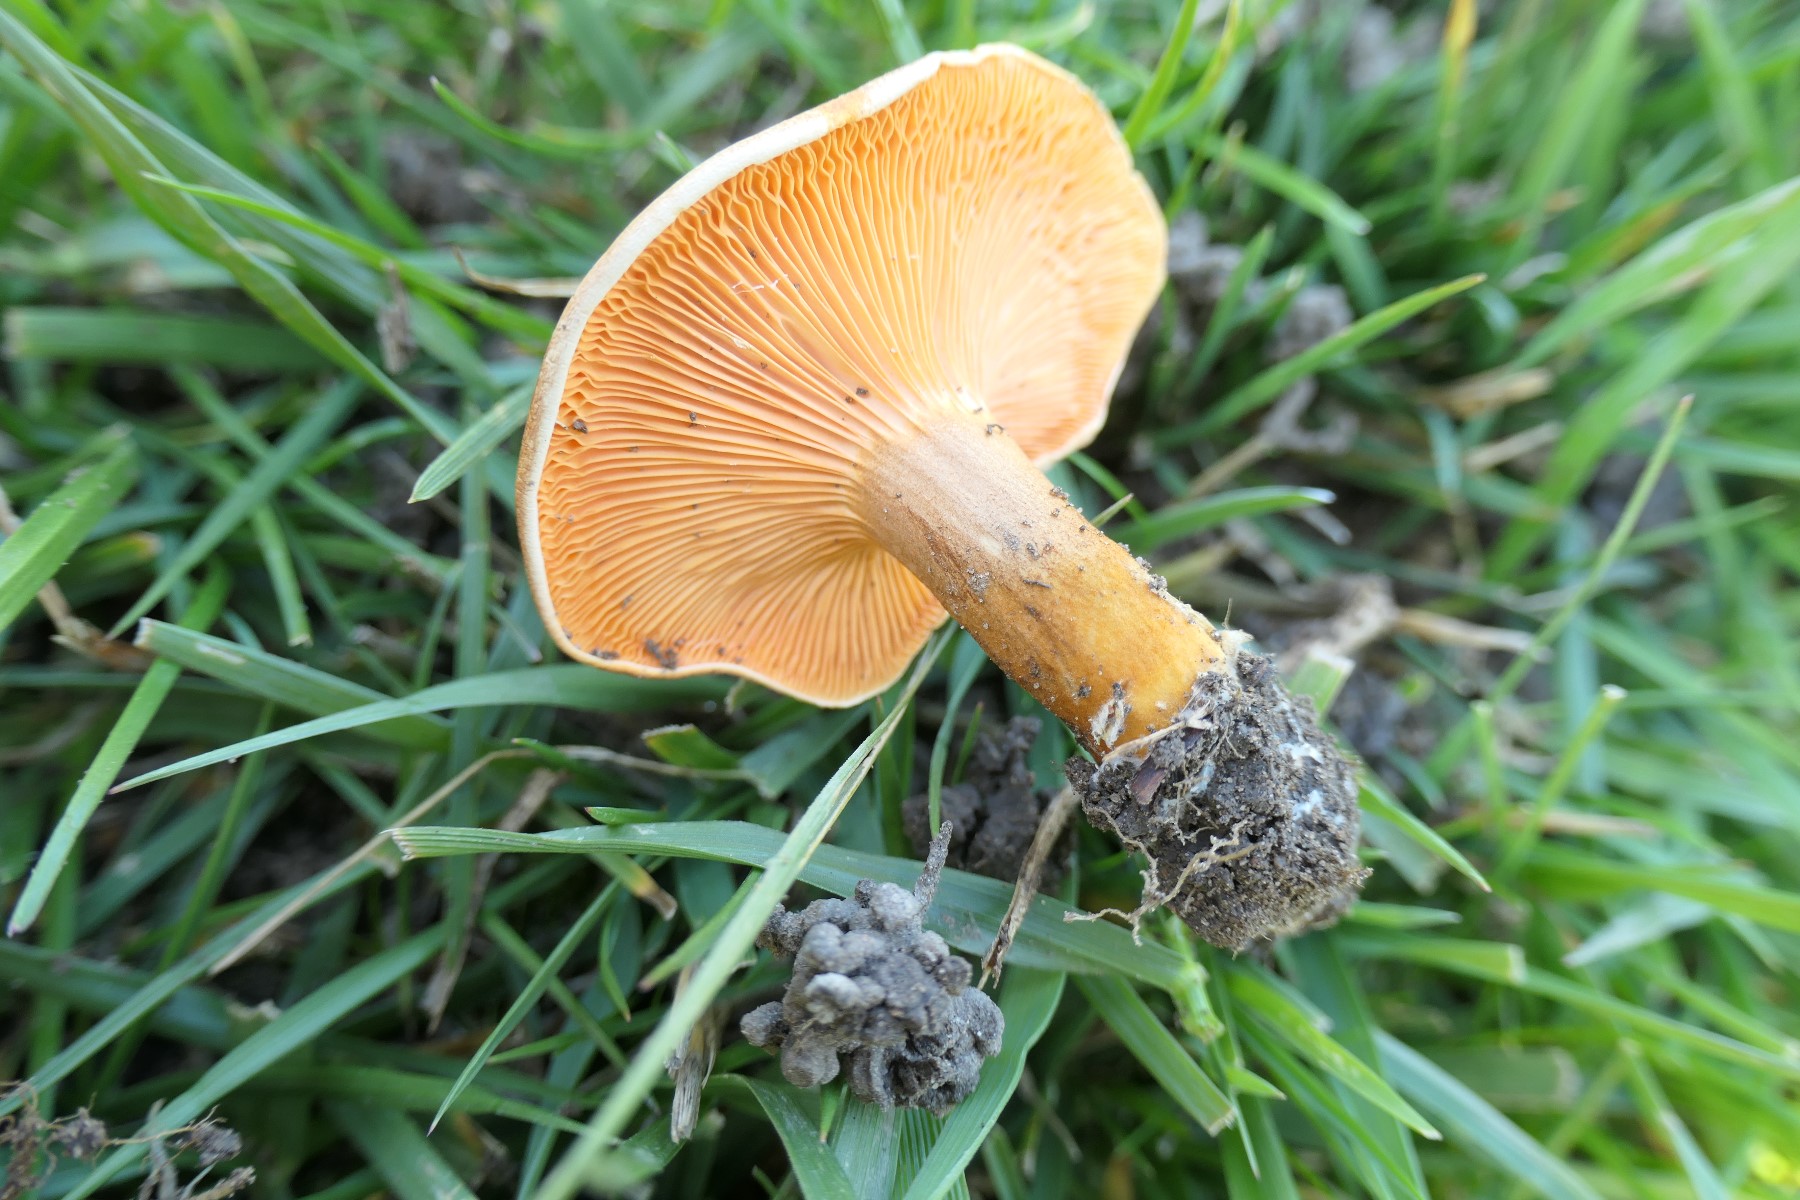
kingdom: Fungi
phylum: Basidiomycota
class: Agaricomycetes
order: Boletales
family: Hygrophoropsidaceae
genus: Hygrophoropsis
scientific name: Hygrophoropsis rufa
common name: brunfiltet orangekantarel
